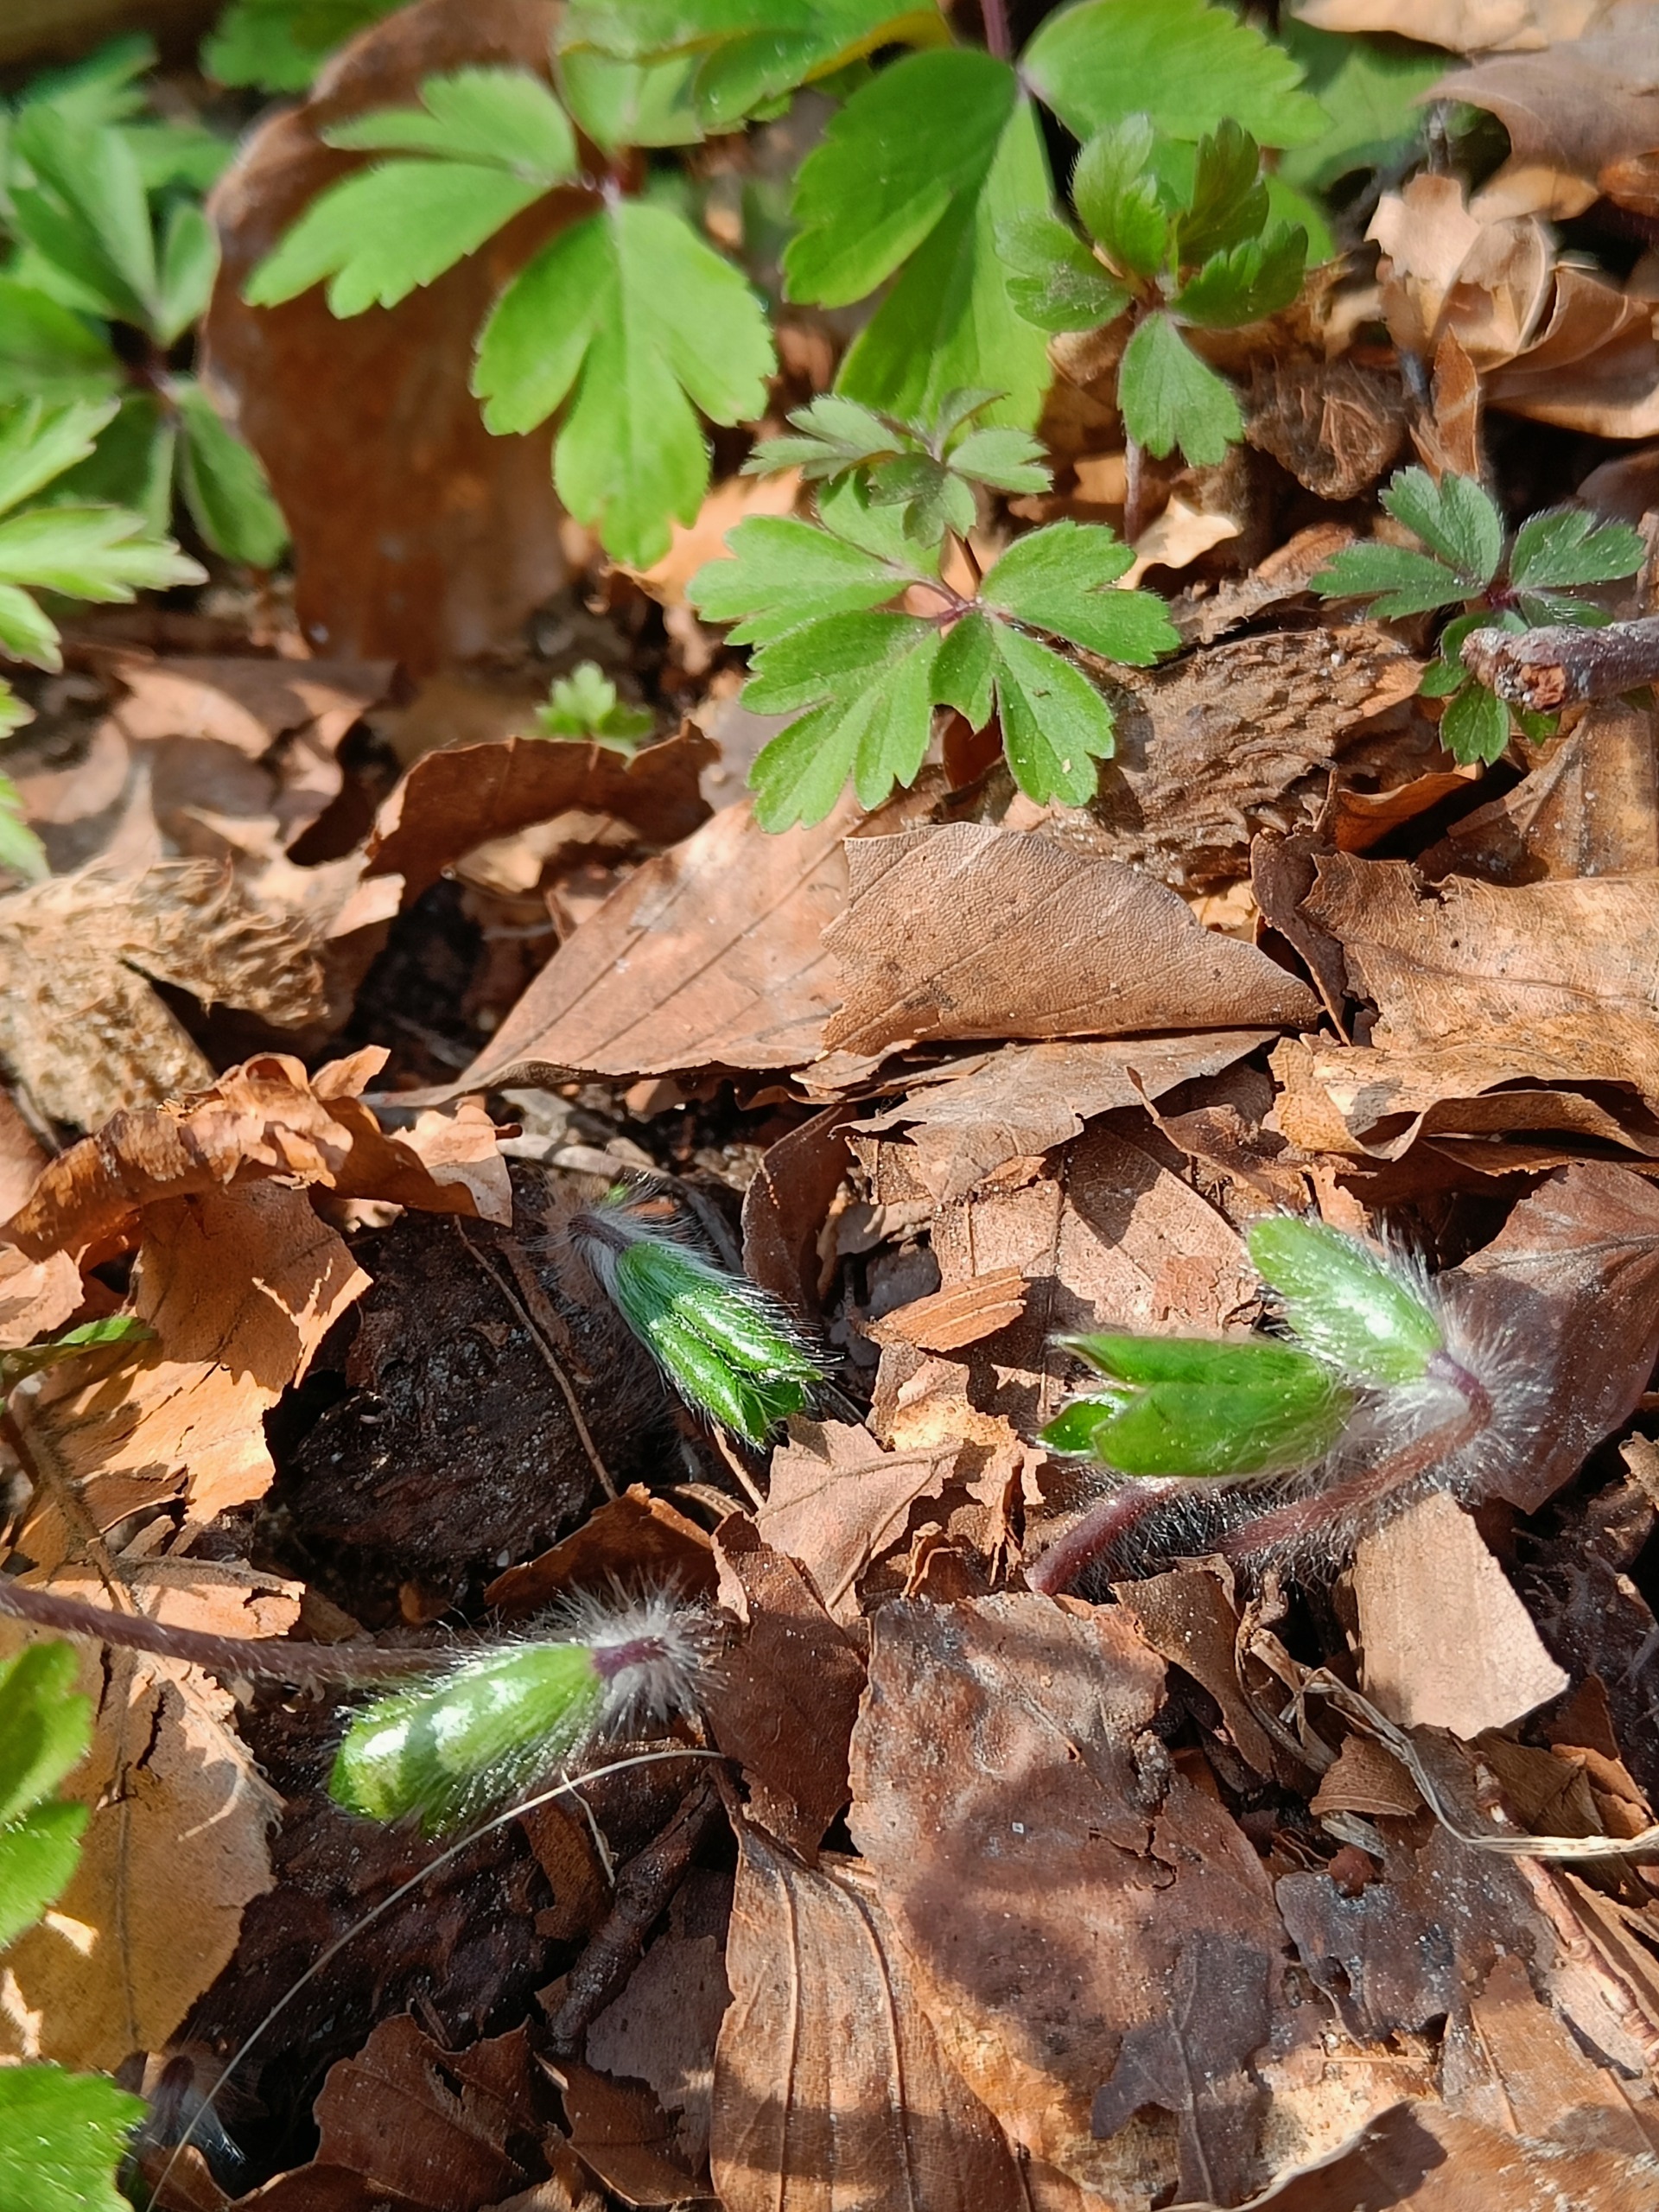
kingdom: Plantae
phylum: Tracheophyta
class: Magnoliopsida
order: Ranunculales
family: Ranunculaceae
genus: Hepatica
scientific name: Hepatica nobilis
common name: Blå anemone
